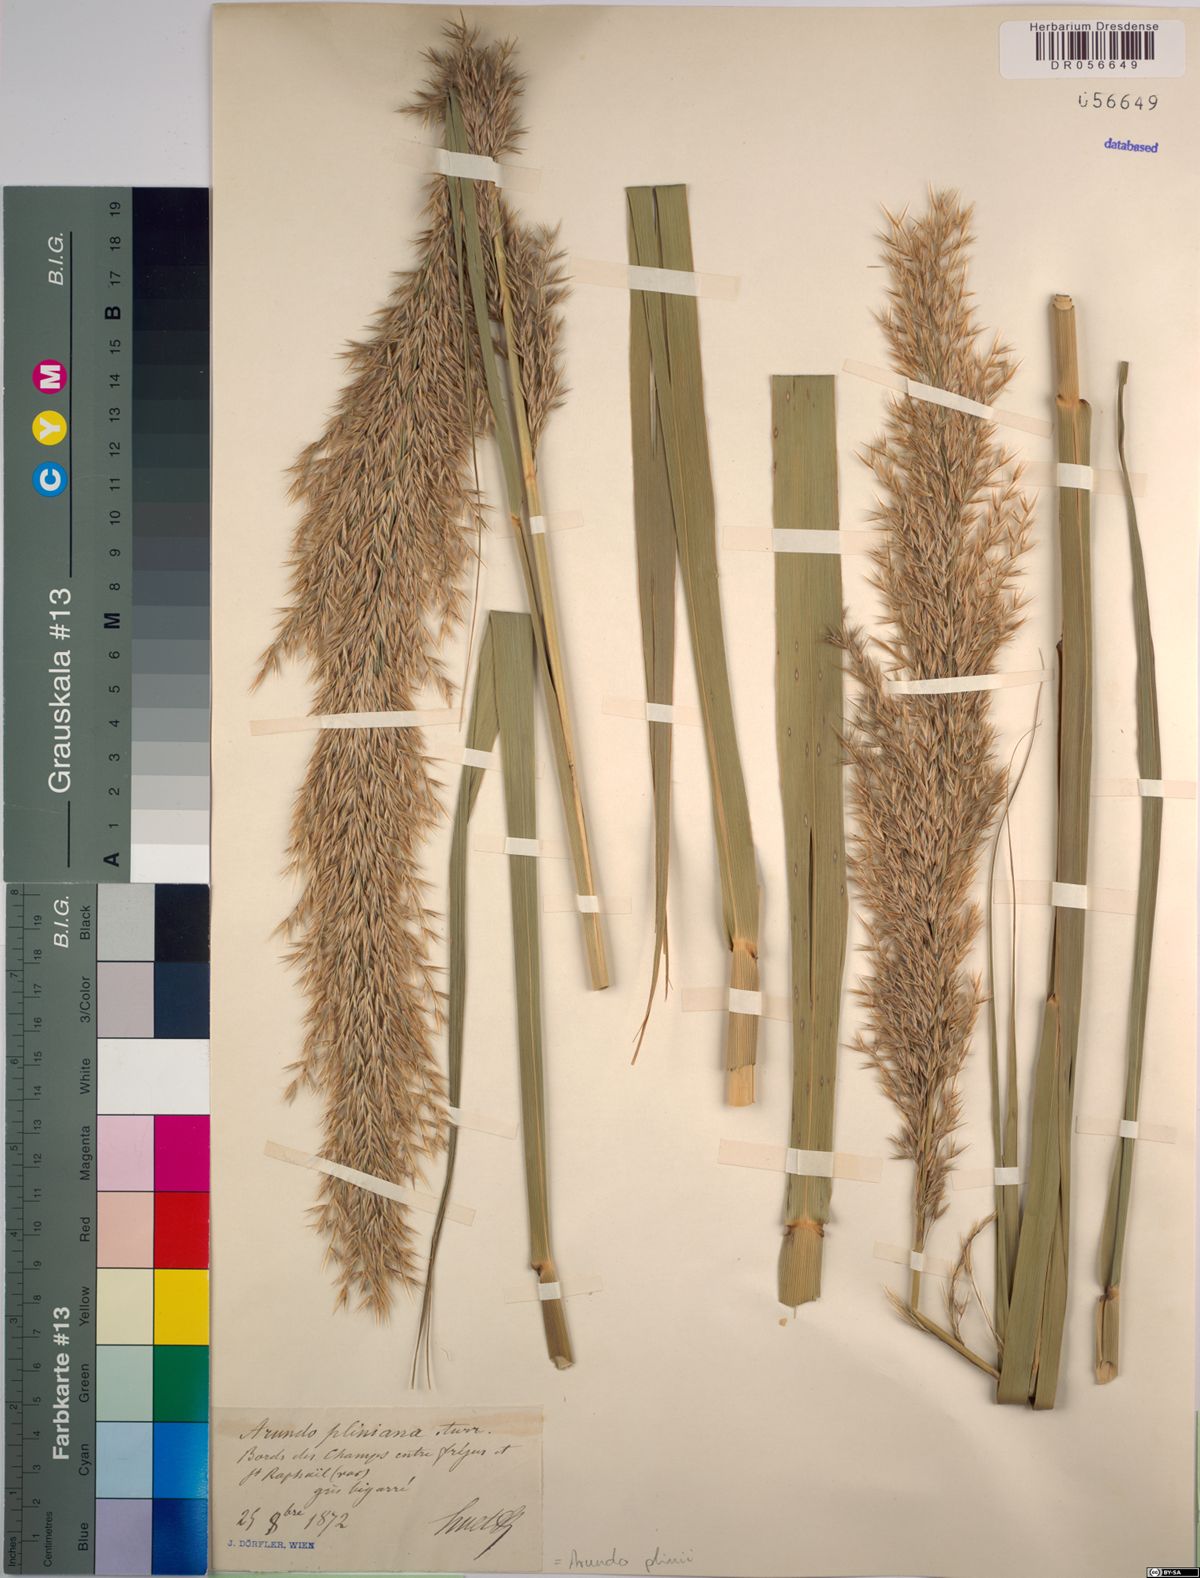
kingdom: Plantae
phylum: Tracheophyta
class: Liliopsida
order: Poales
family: Poaceae
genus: Arundo
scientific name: Arundo plinii
